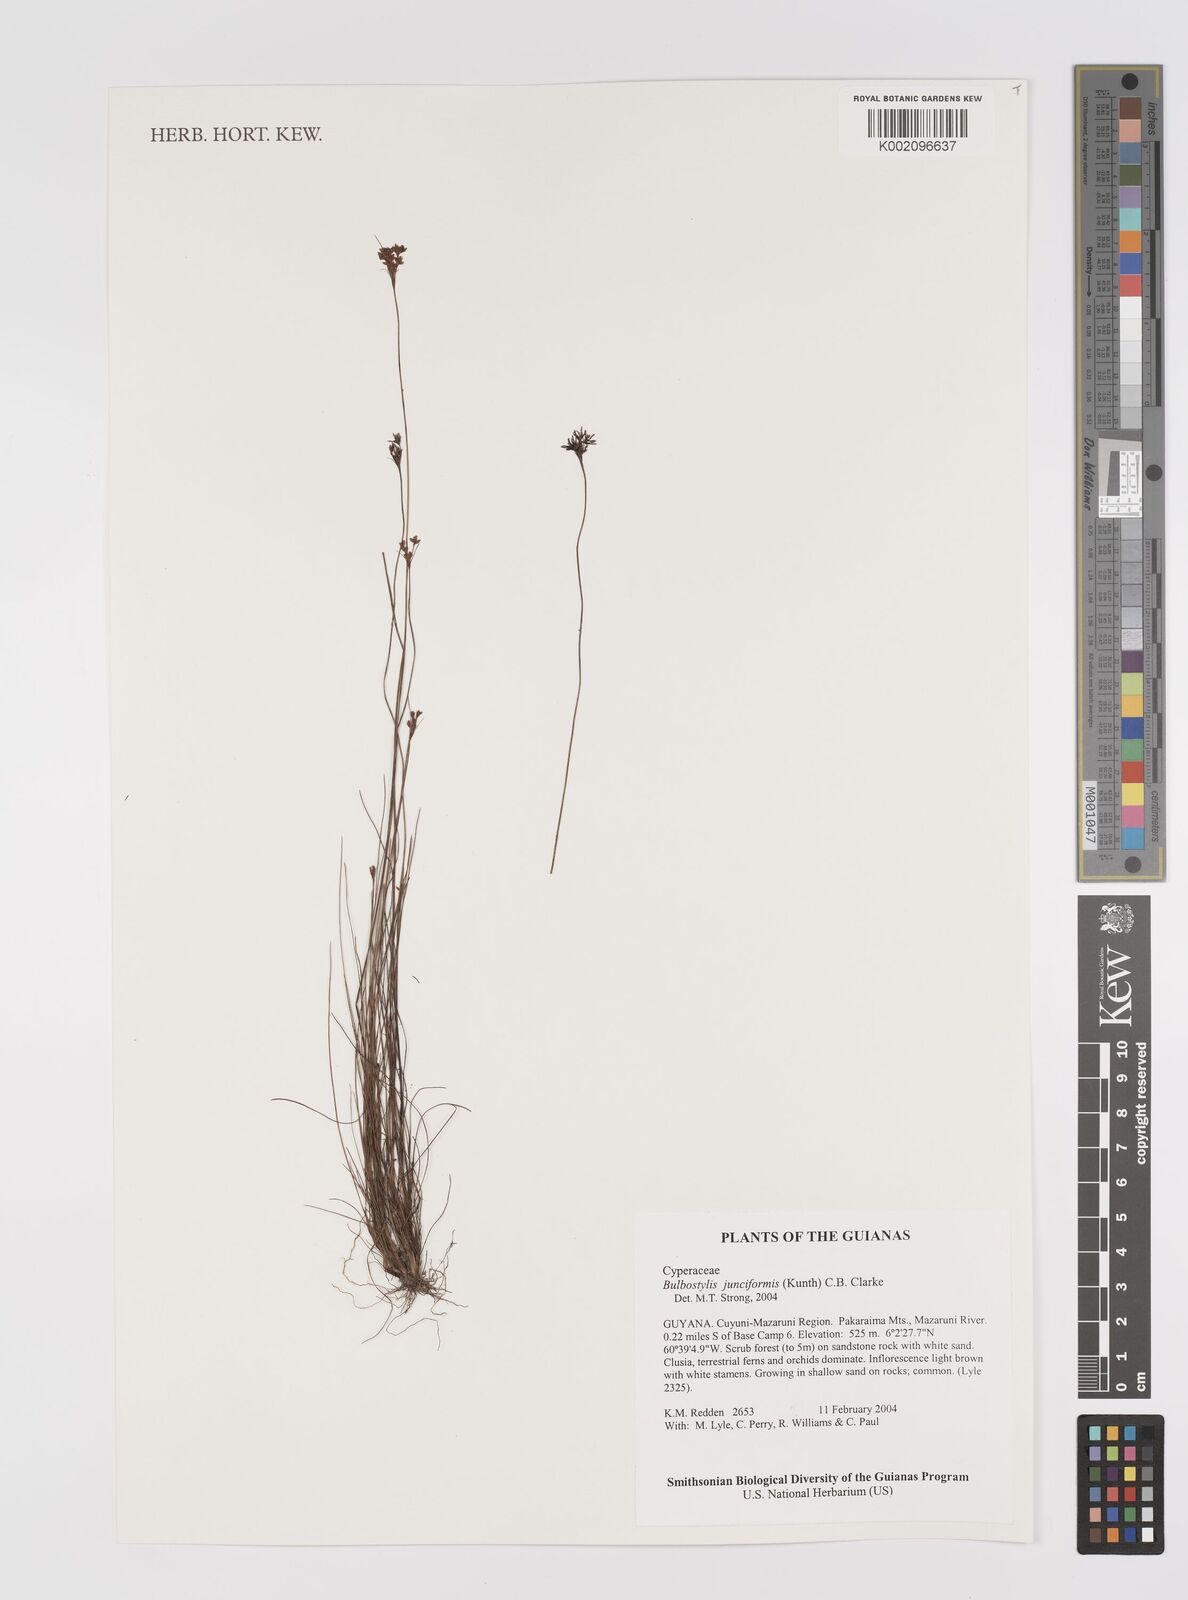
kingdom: Plantae
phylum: Tracheophyta
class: Liliopsida
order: Poales
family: Cyperaceae
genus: Bulbostylis
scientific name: Bulbostylis junciformis
